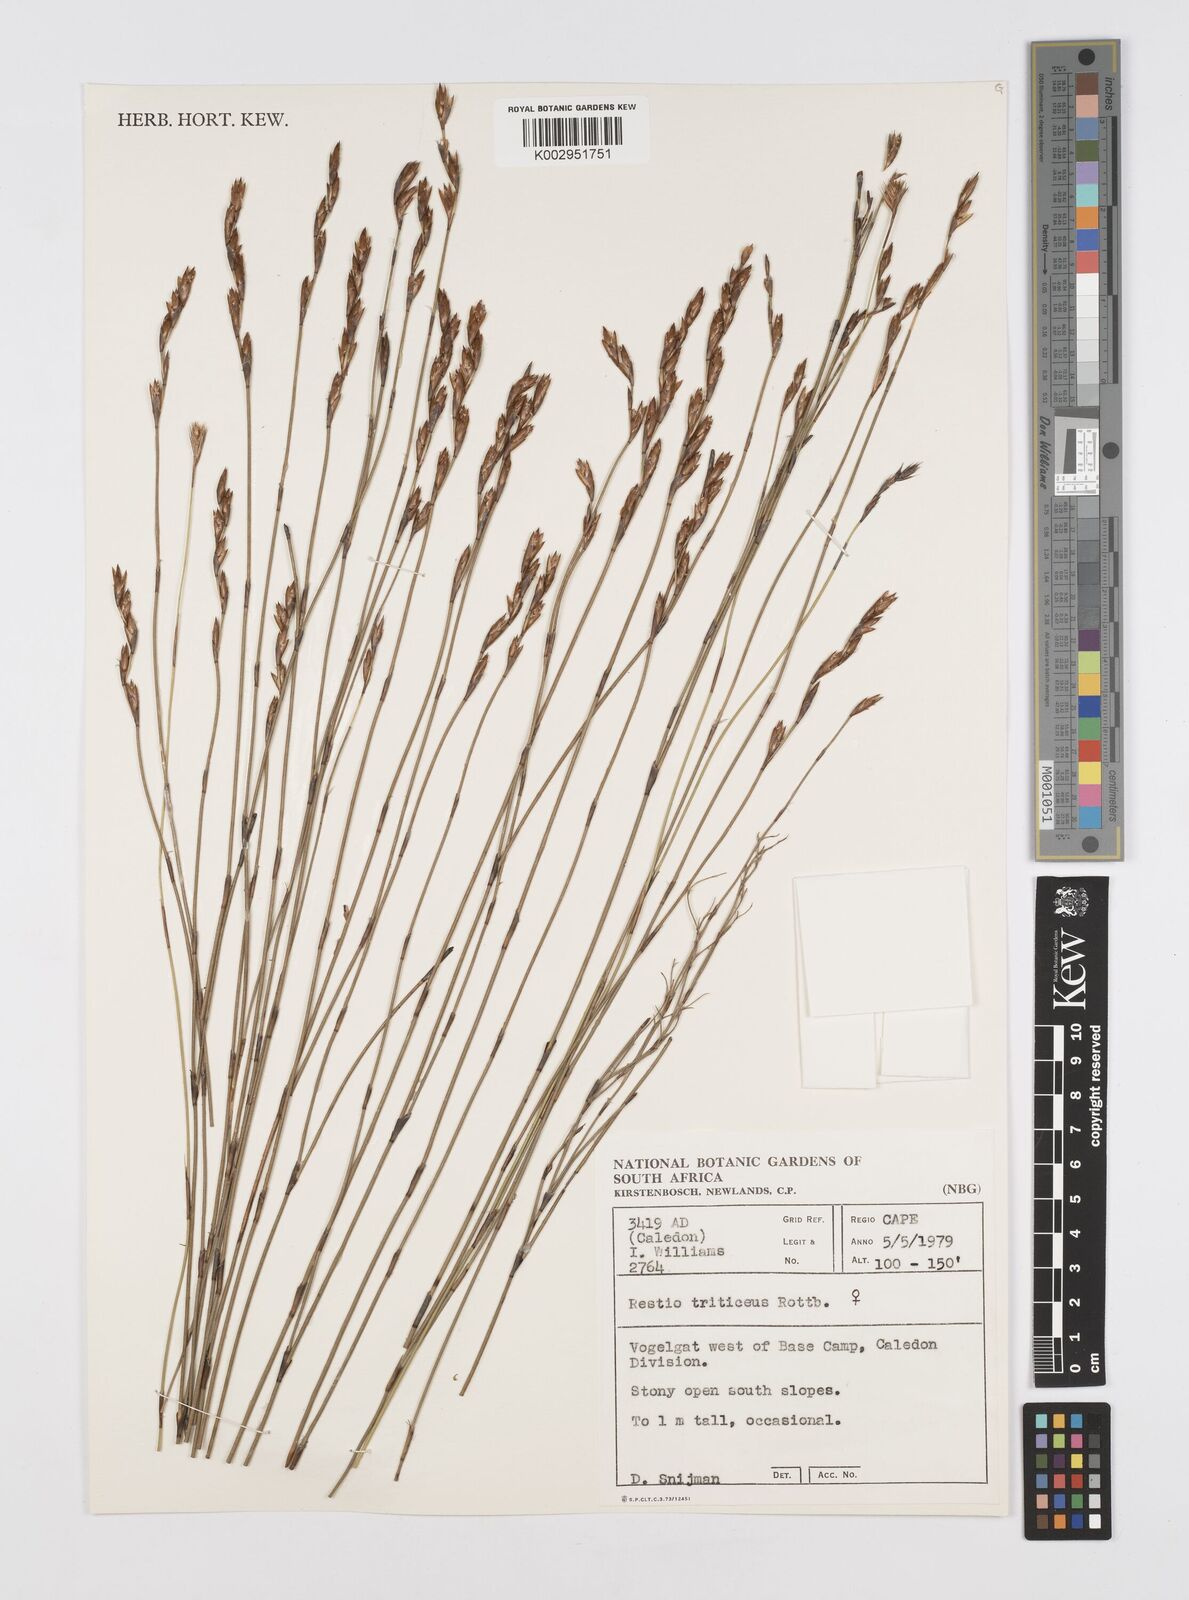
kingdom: Plantae
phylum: Tracheophyta
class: Liliopsida
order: Poales
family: Restionaceae
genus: Restio
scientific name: Restio triticeus
